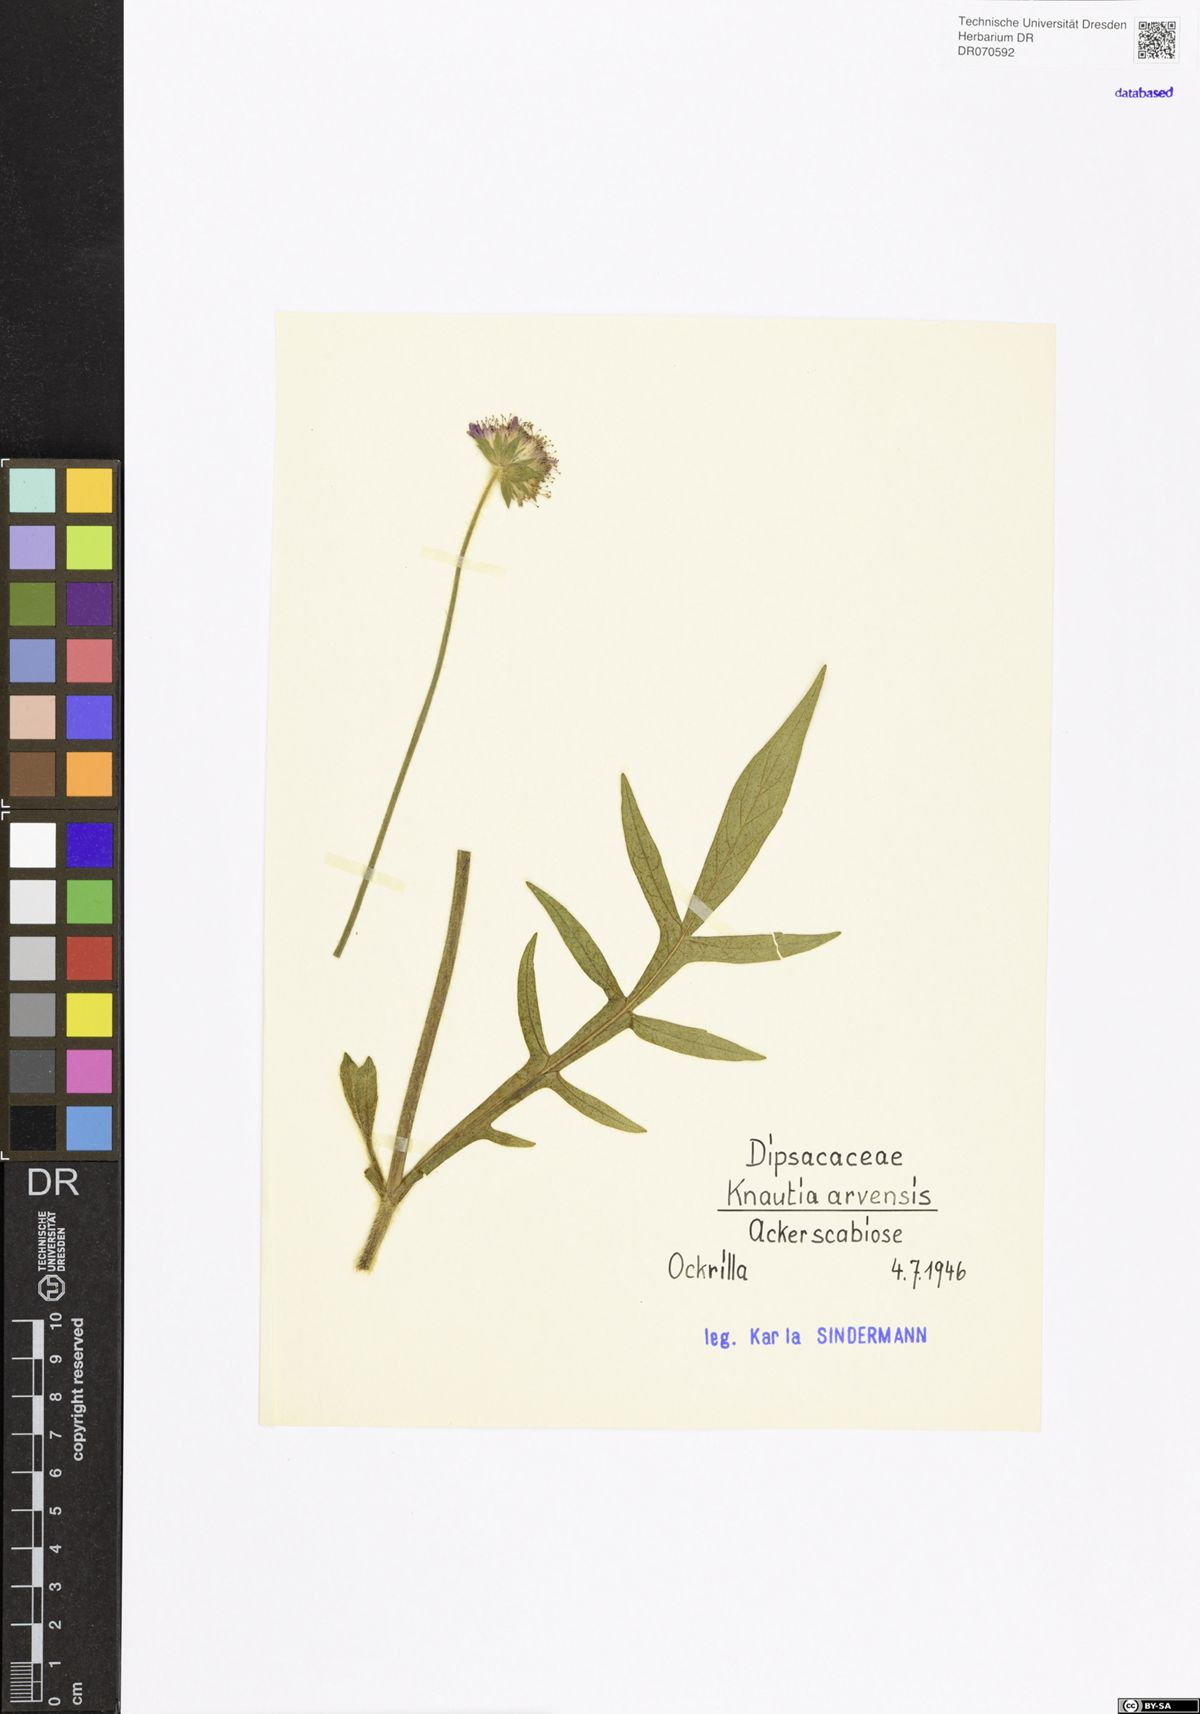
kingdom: Plantae
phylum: Tracheophyta
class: Magnoliopsida
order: Dipsacales
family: Caprifoliaceae
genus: Knautia
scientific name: Knautia arvensis
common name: Field scabiosa
